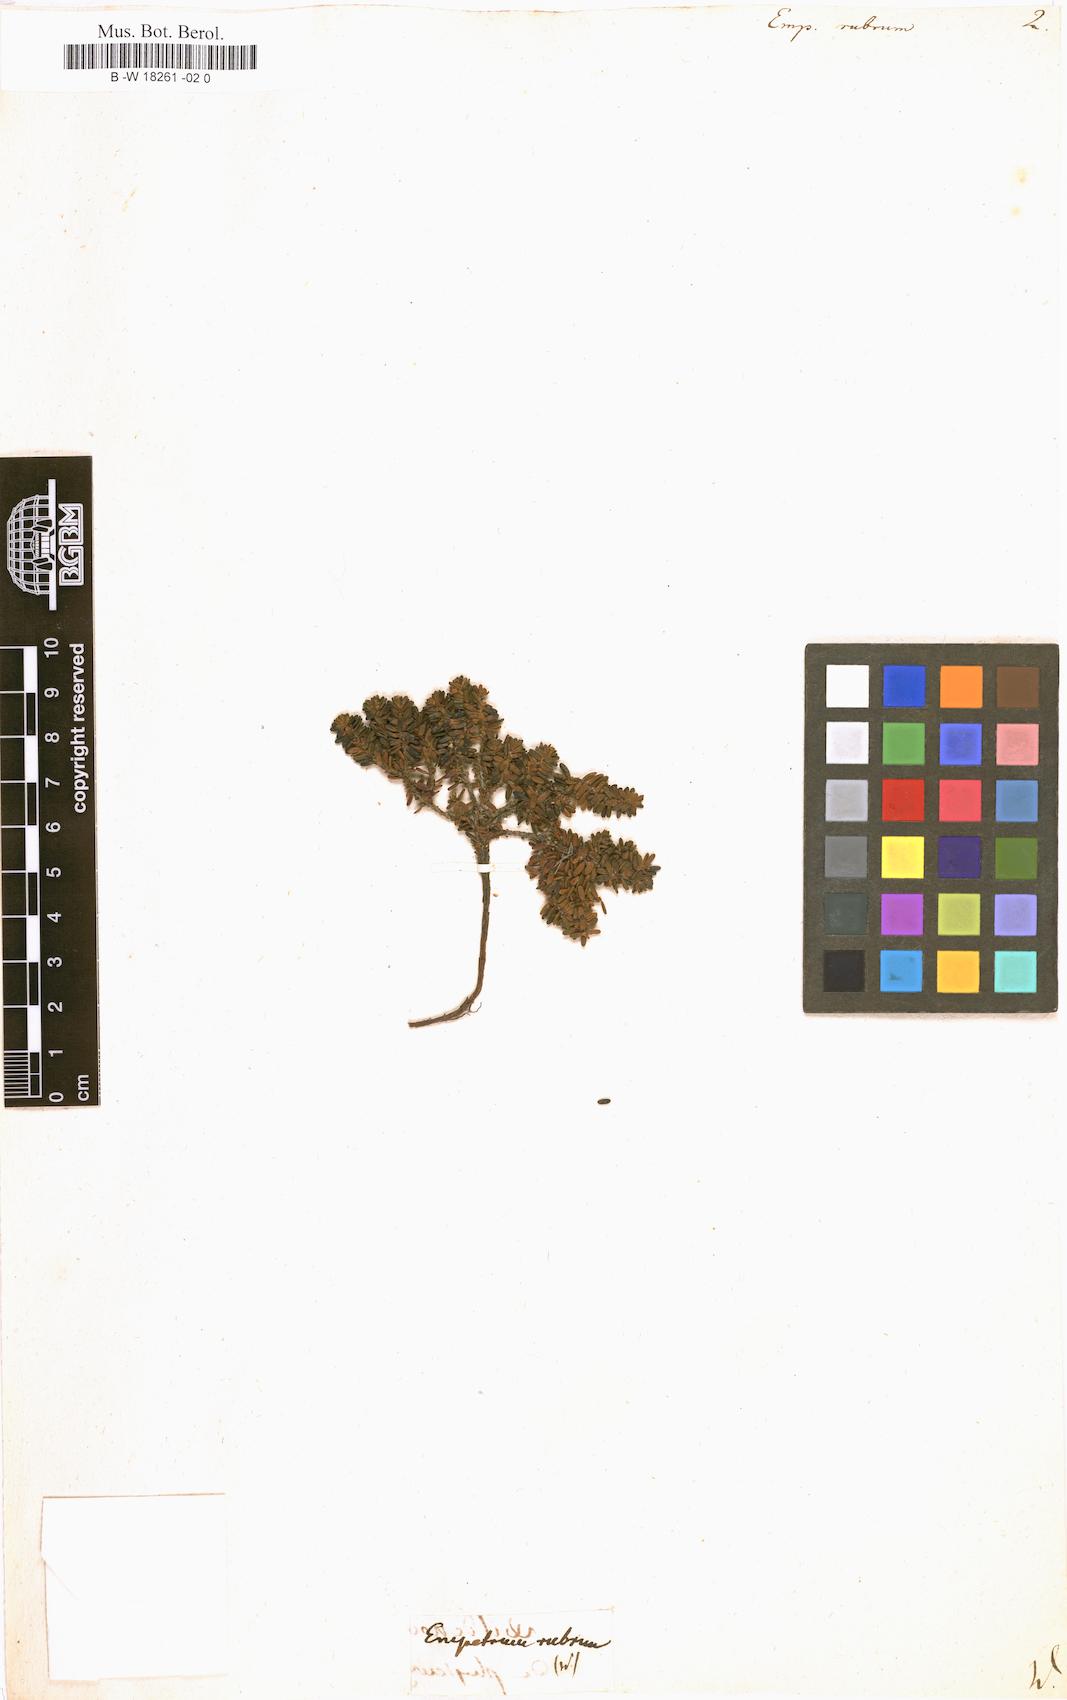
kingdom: Plantae
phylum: Tracheophyta
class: Magnoliopsida
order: Ericales
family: Ericaceae
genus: Empetrum
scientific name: Empetrum rubrum
